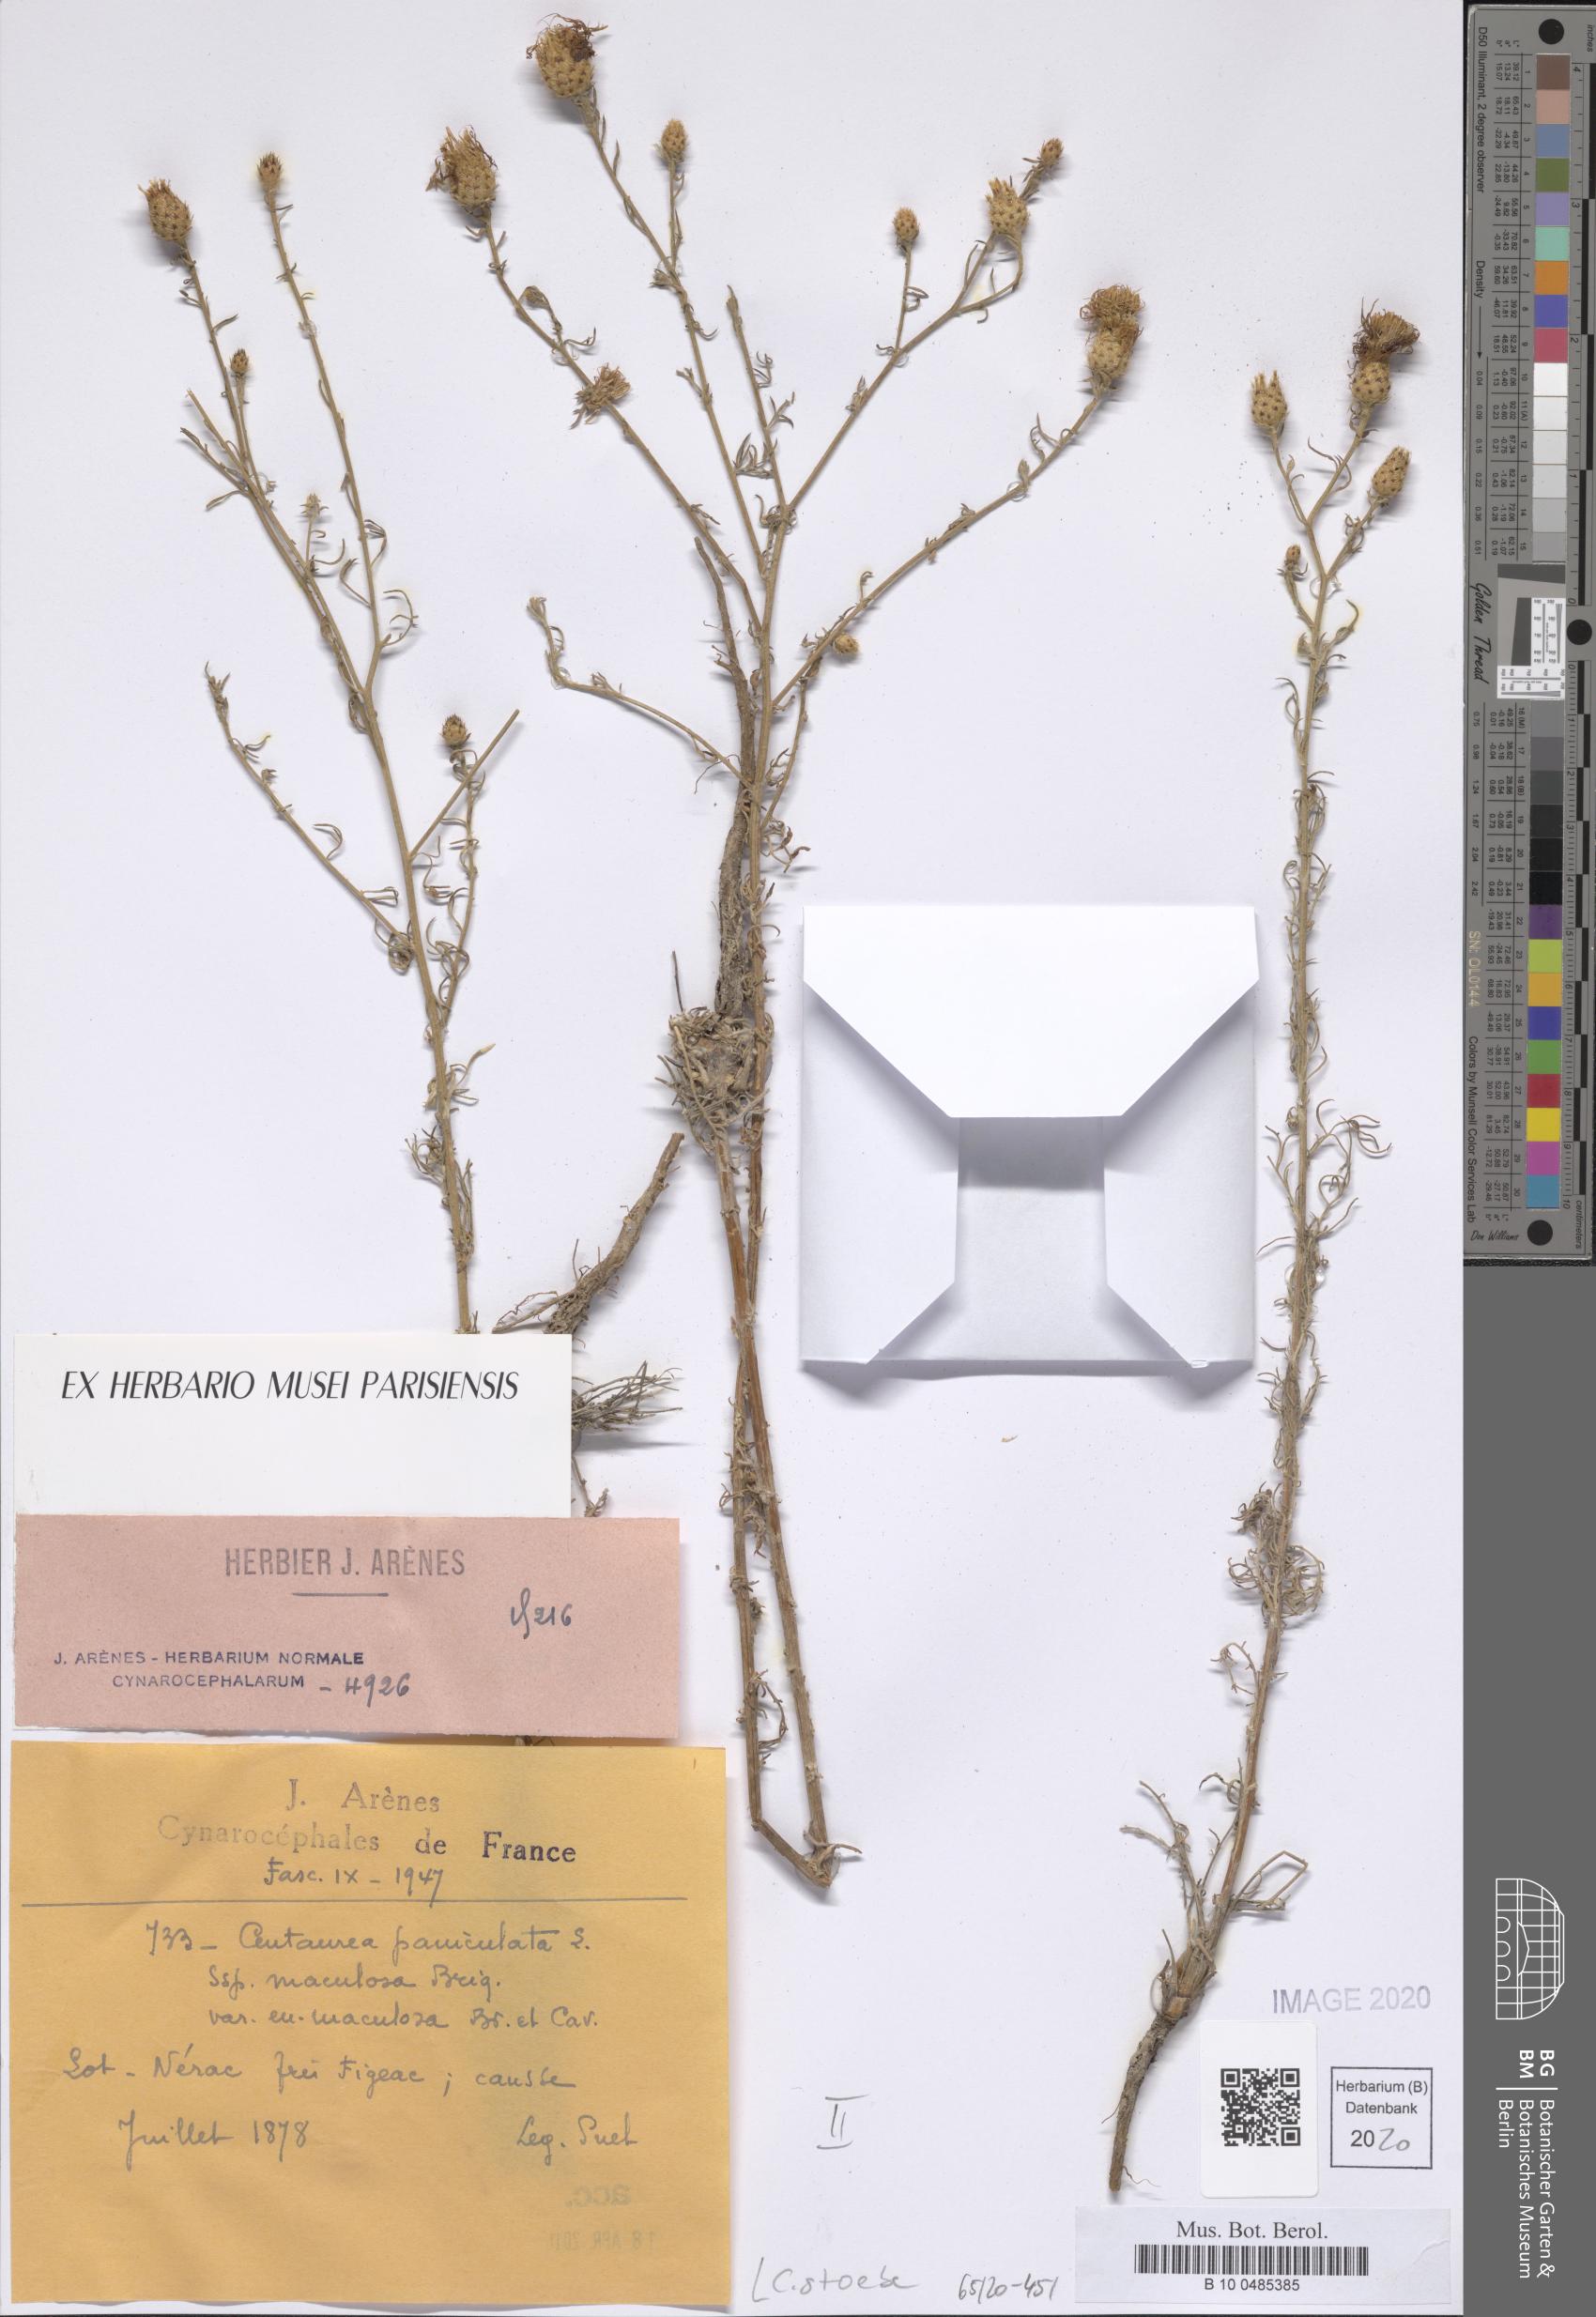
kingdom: Plantae
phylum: Tracheophyta
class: Magnoliopsida
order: Asterales
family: Asteraceae
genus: Centaurea
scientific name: Centaurea stoebe
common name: Spotted knapweed
